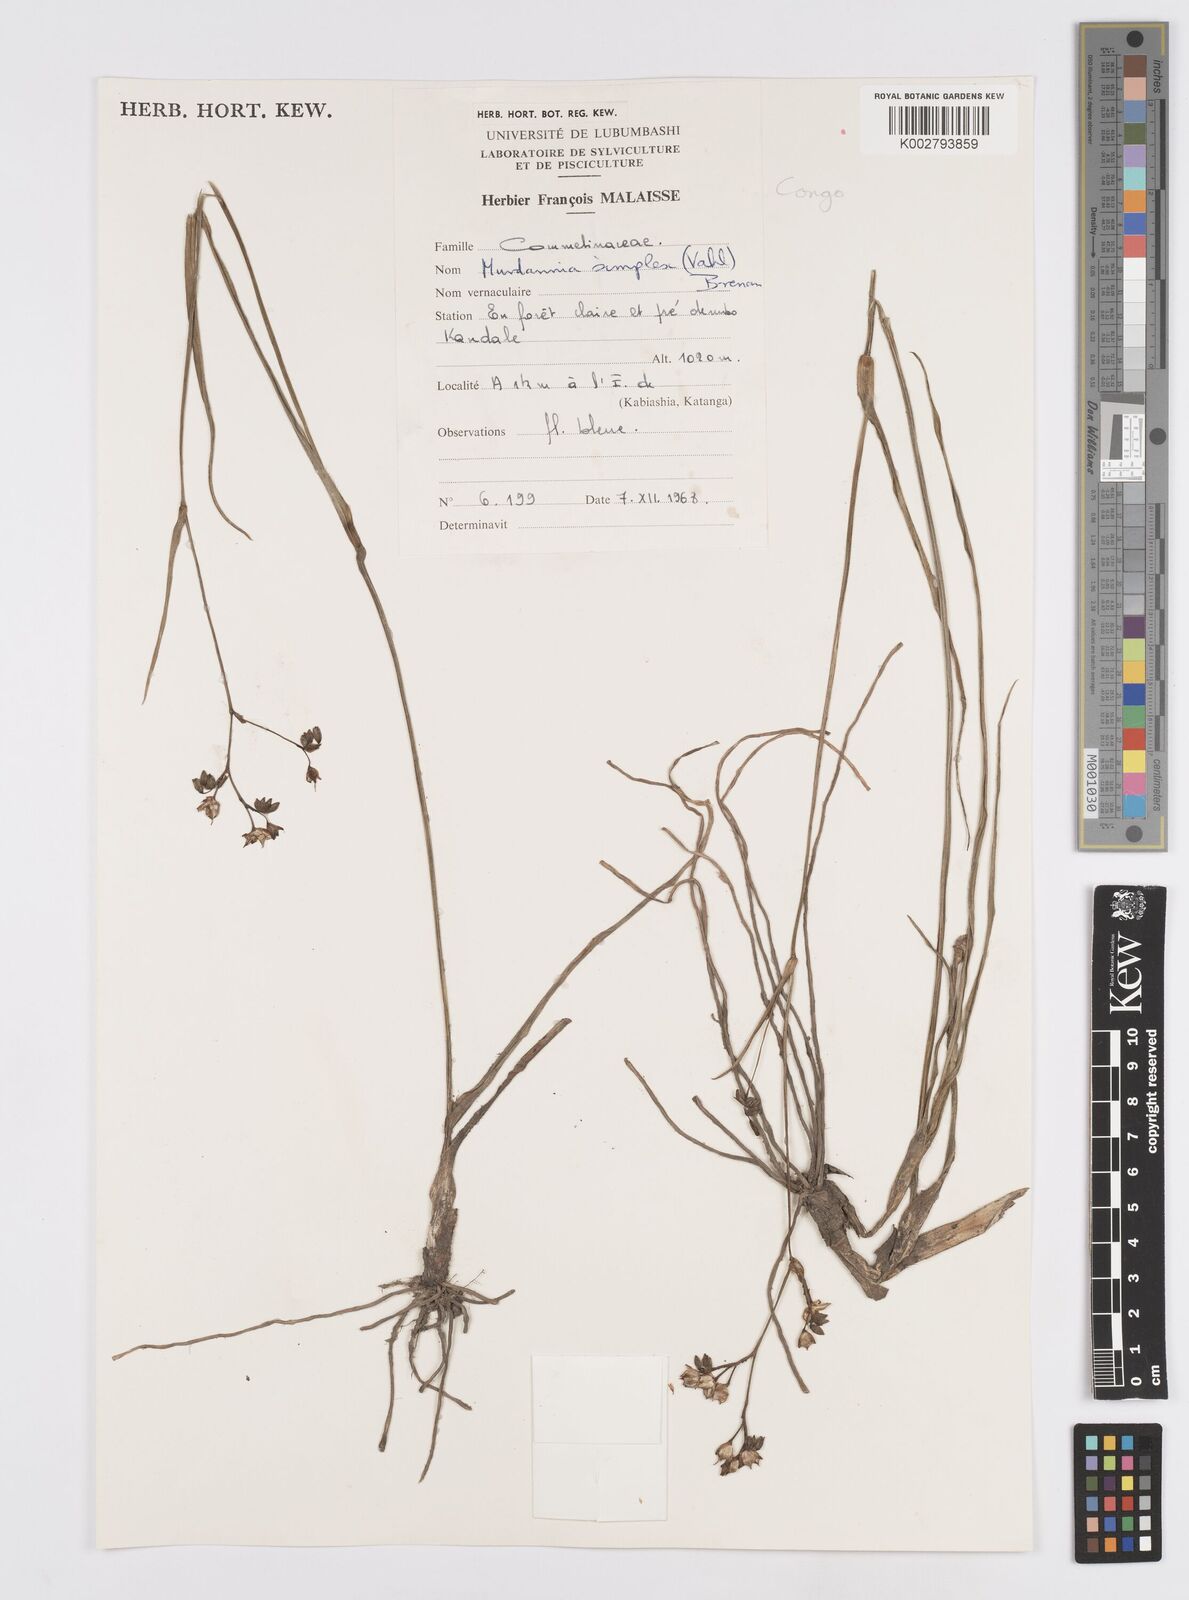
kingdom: Plantae
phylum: Tracheophyta
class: Liliopsida
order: Commelinales
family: Commelinaceae
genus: Murdannia
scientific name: Murdannia simplex
